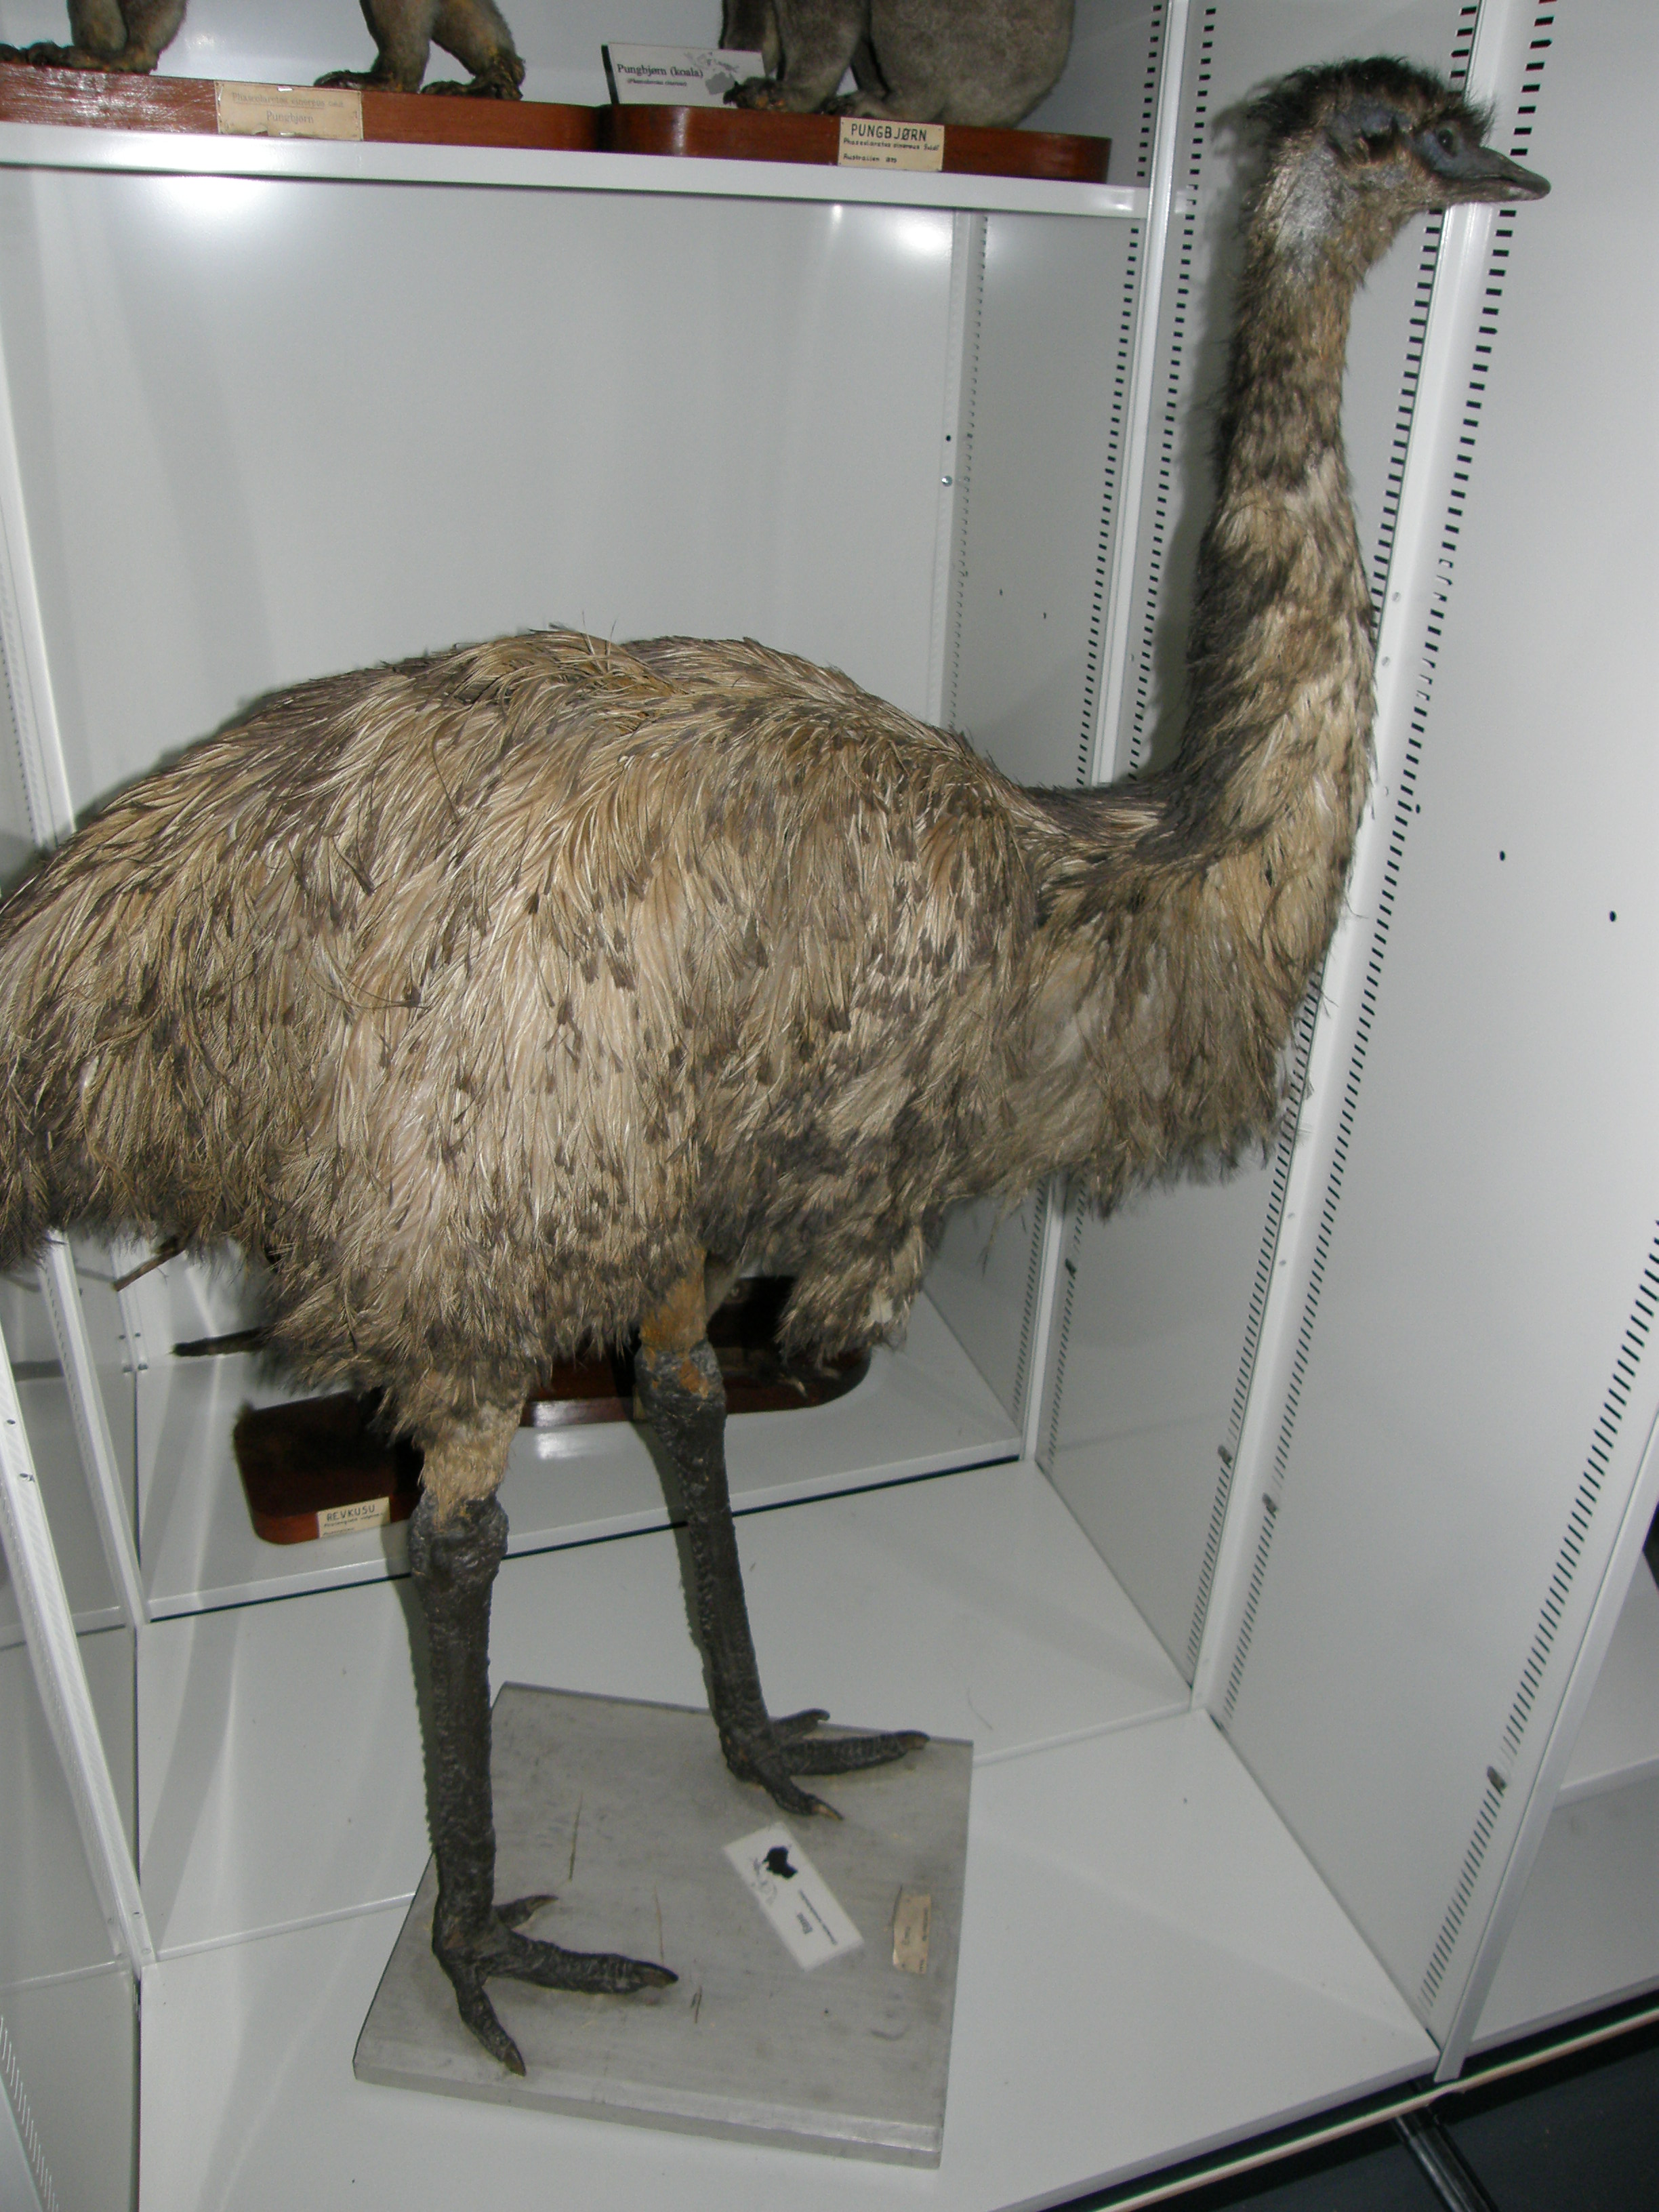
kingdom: Animalia
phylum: Chordata
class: Aves
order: Casuariiformes
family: Dromaiidae
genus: Dromaius
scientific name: Dromaius novaehollandiae
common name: Emu
